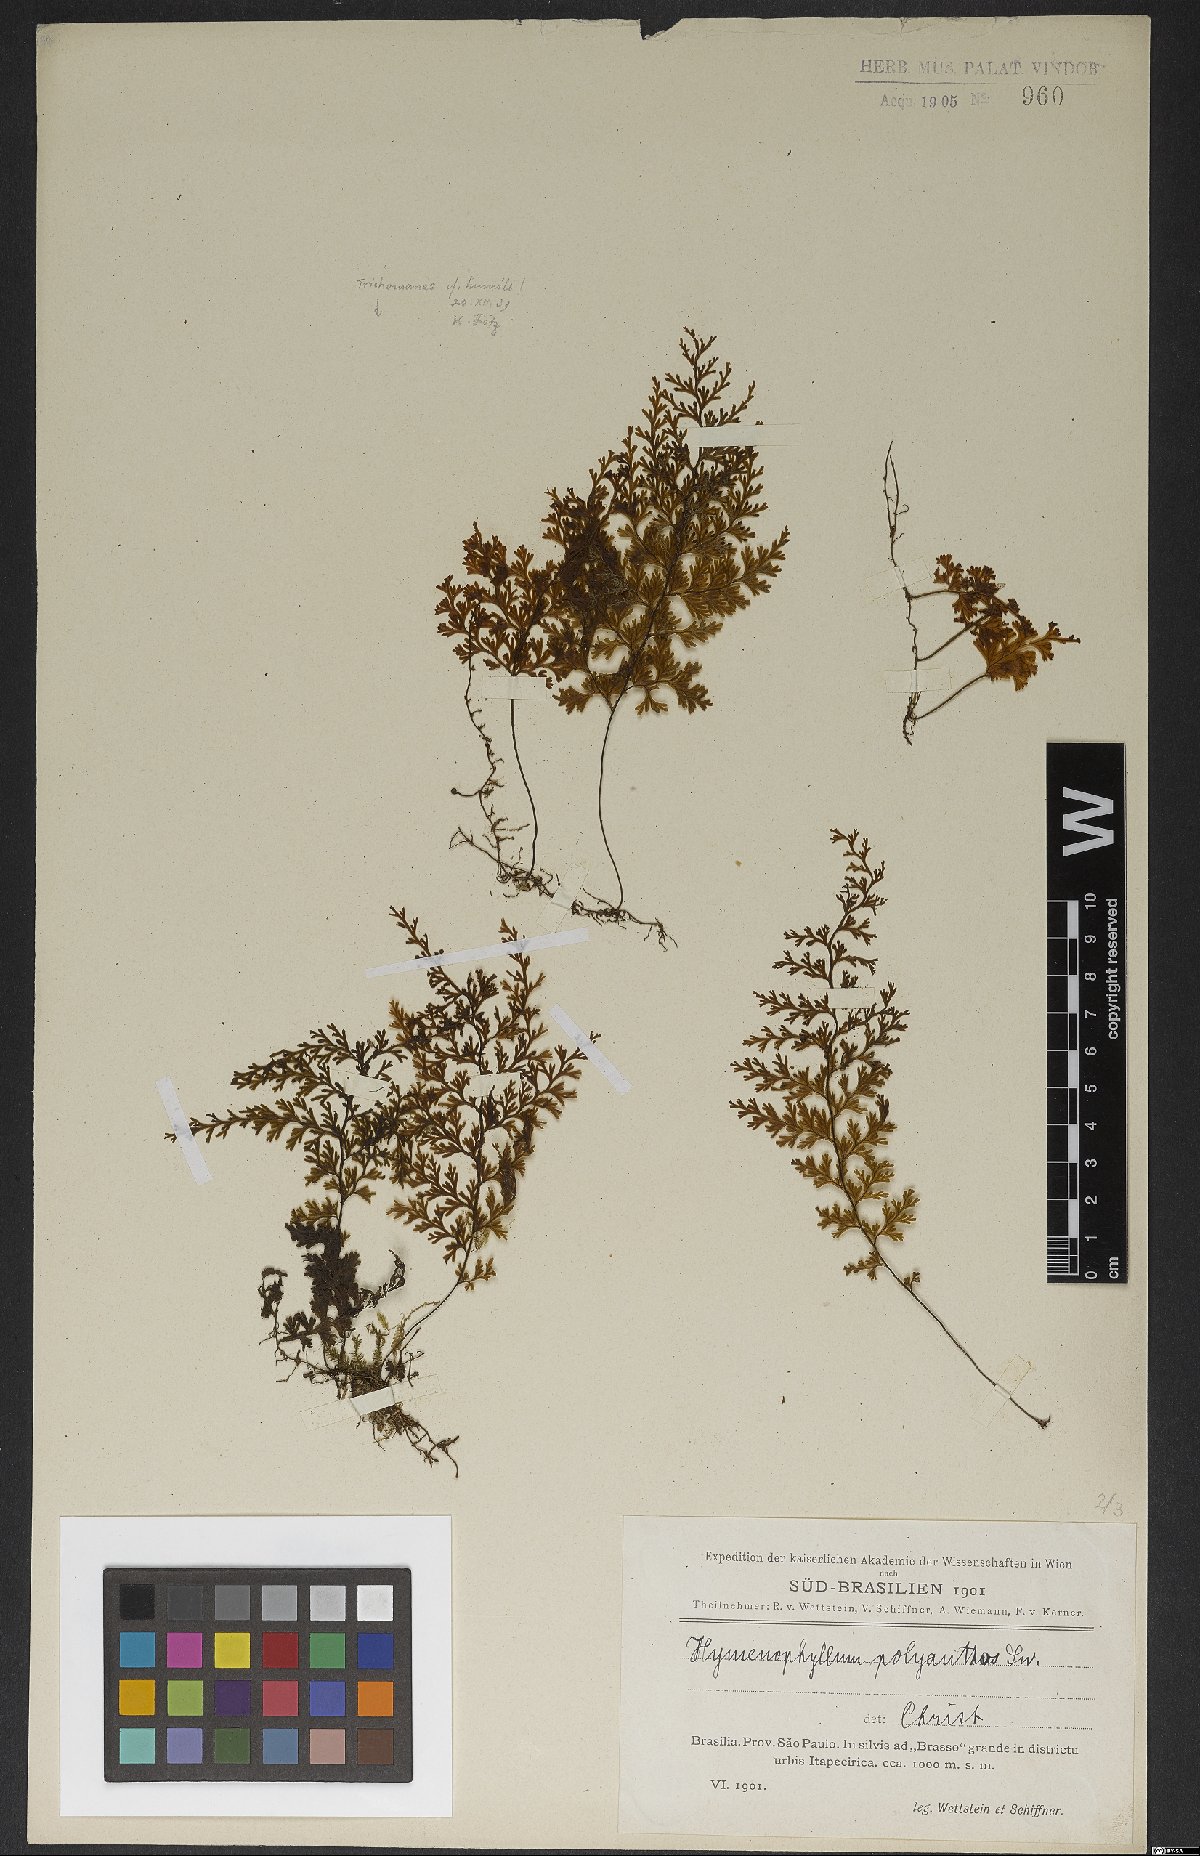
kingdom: Plantae
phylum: Tracheophyta
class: Polypodiopsida
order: Hymenophyllales
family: Hymenophyllaceae
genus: Hymenophyllum
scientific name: Hymenophyllum polyanthos
